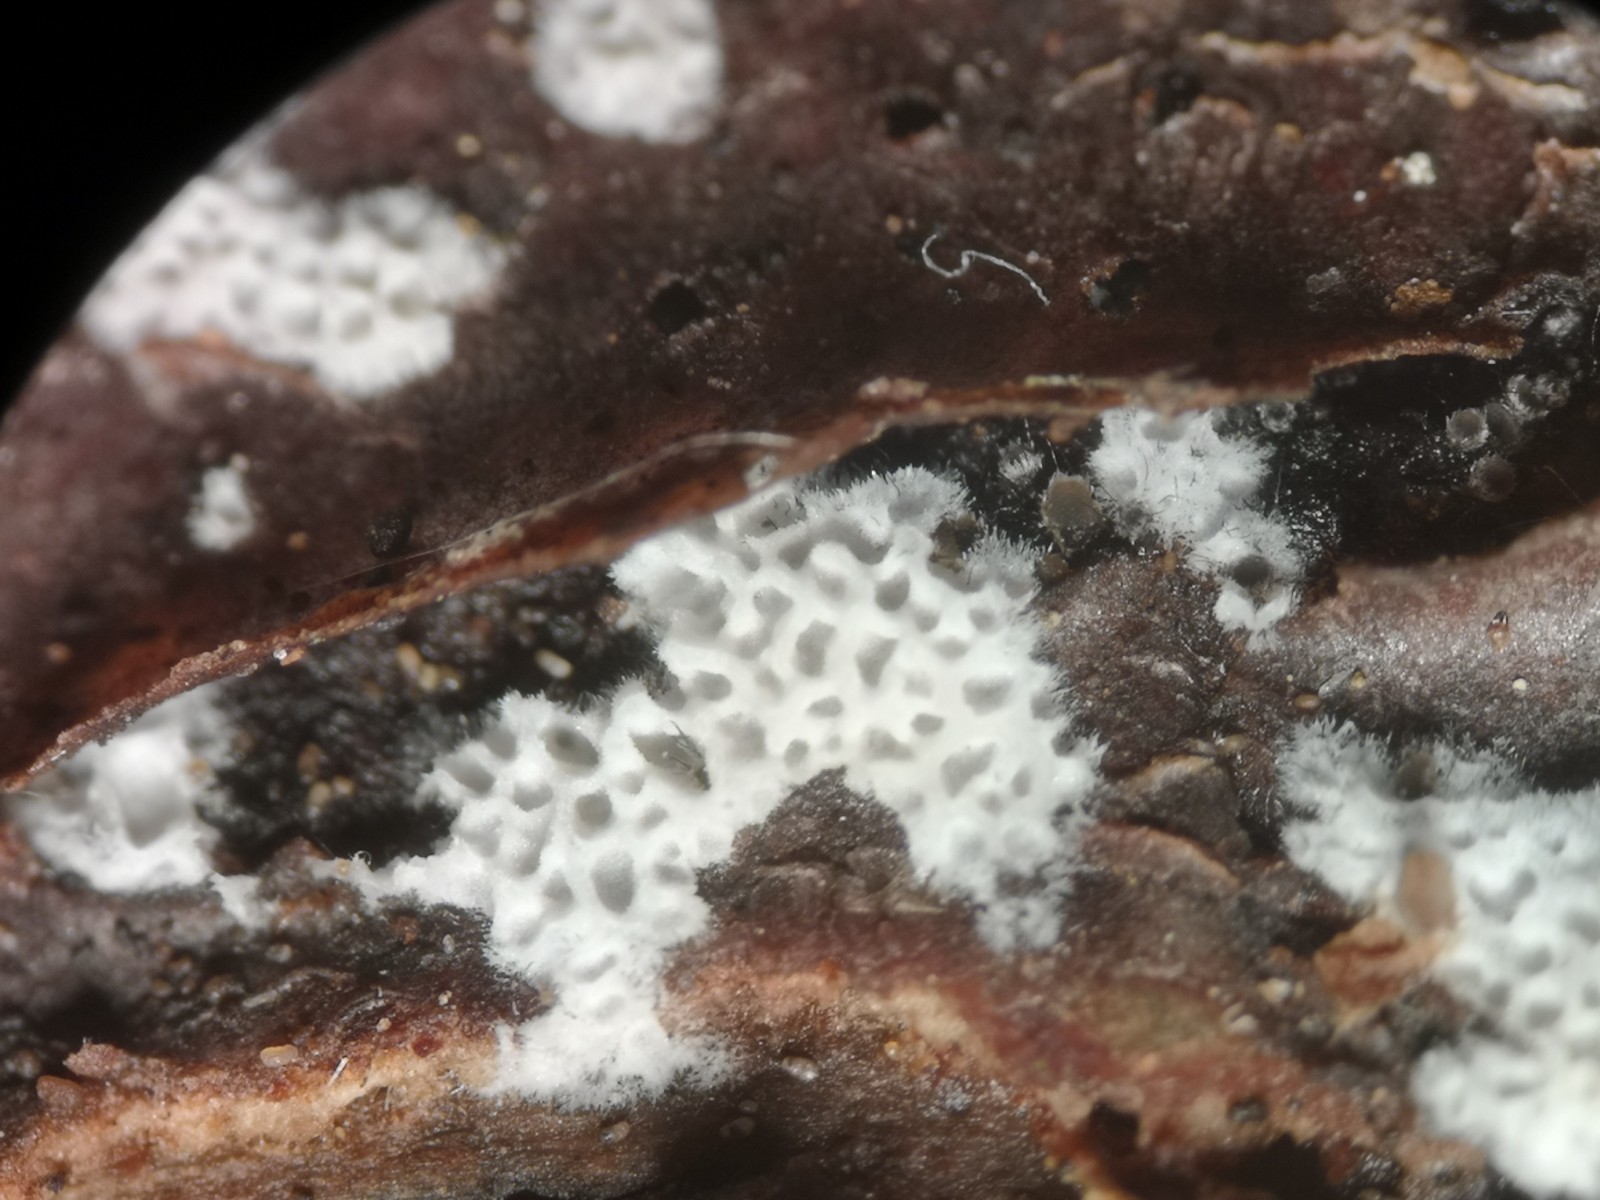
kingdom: Fungi
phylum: Basidiomycota
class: Agaricomycetes
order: Polyporales
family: Irpicaceae
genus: Ceriporia
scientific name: Ceriporia reticulata
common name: netagtig voksporesvamp
